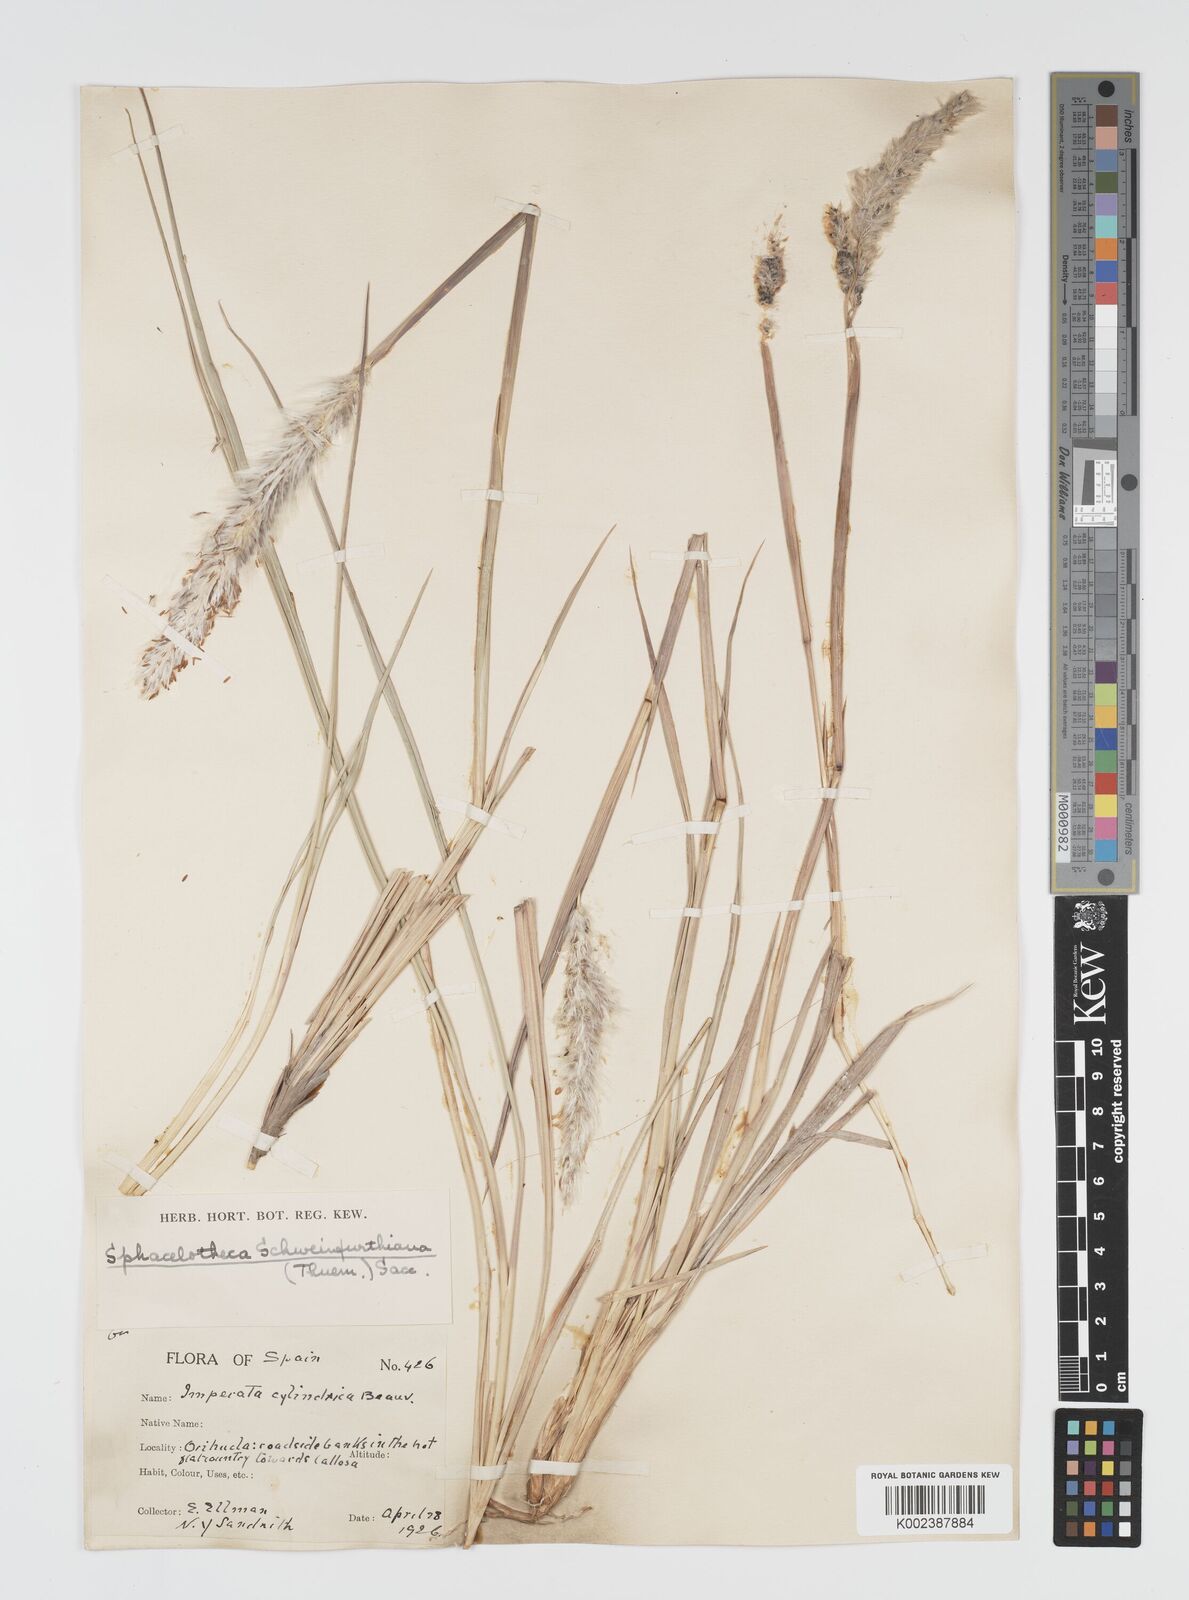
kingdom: Plantae
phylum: Tracheophyta
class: Liliopsida
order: Poales
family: Poaceae
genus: Imperata
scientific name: Imperata cylindrica
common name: Cogongrass
